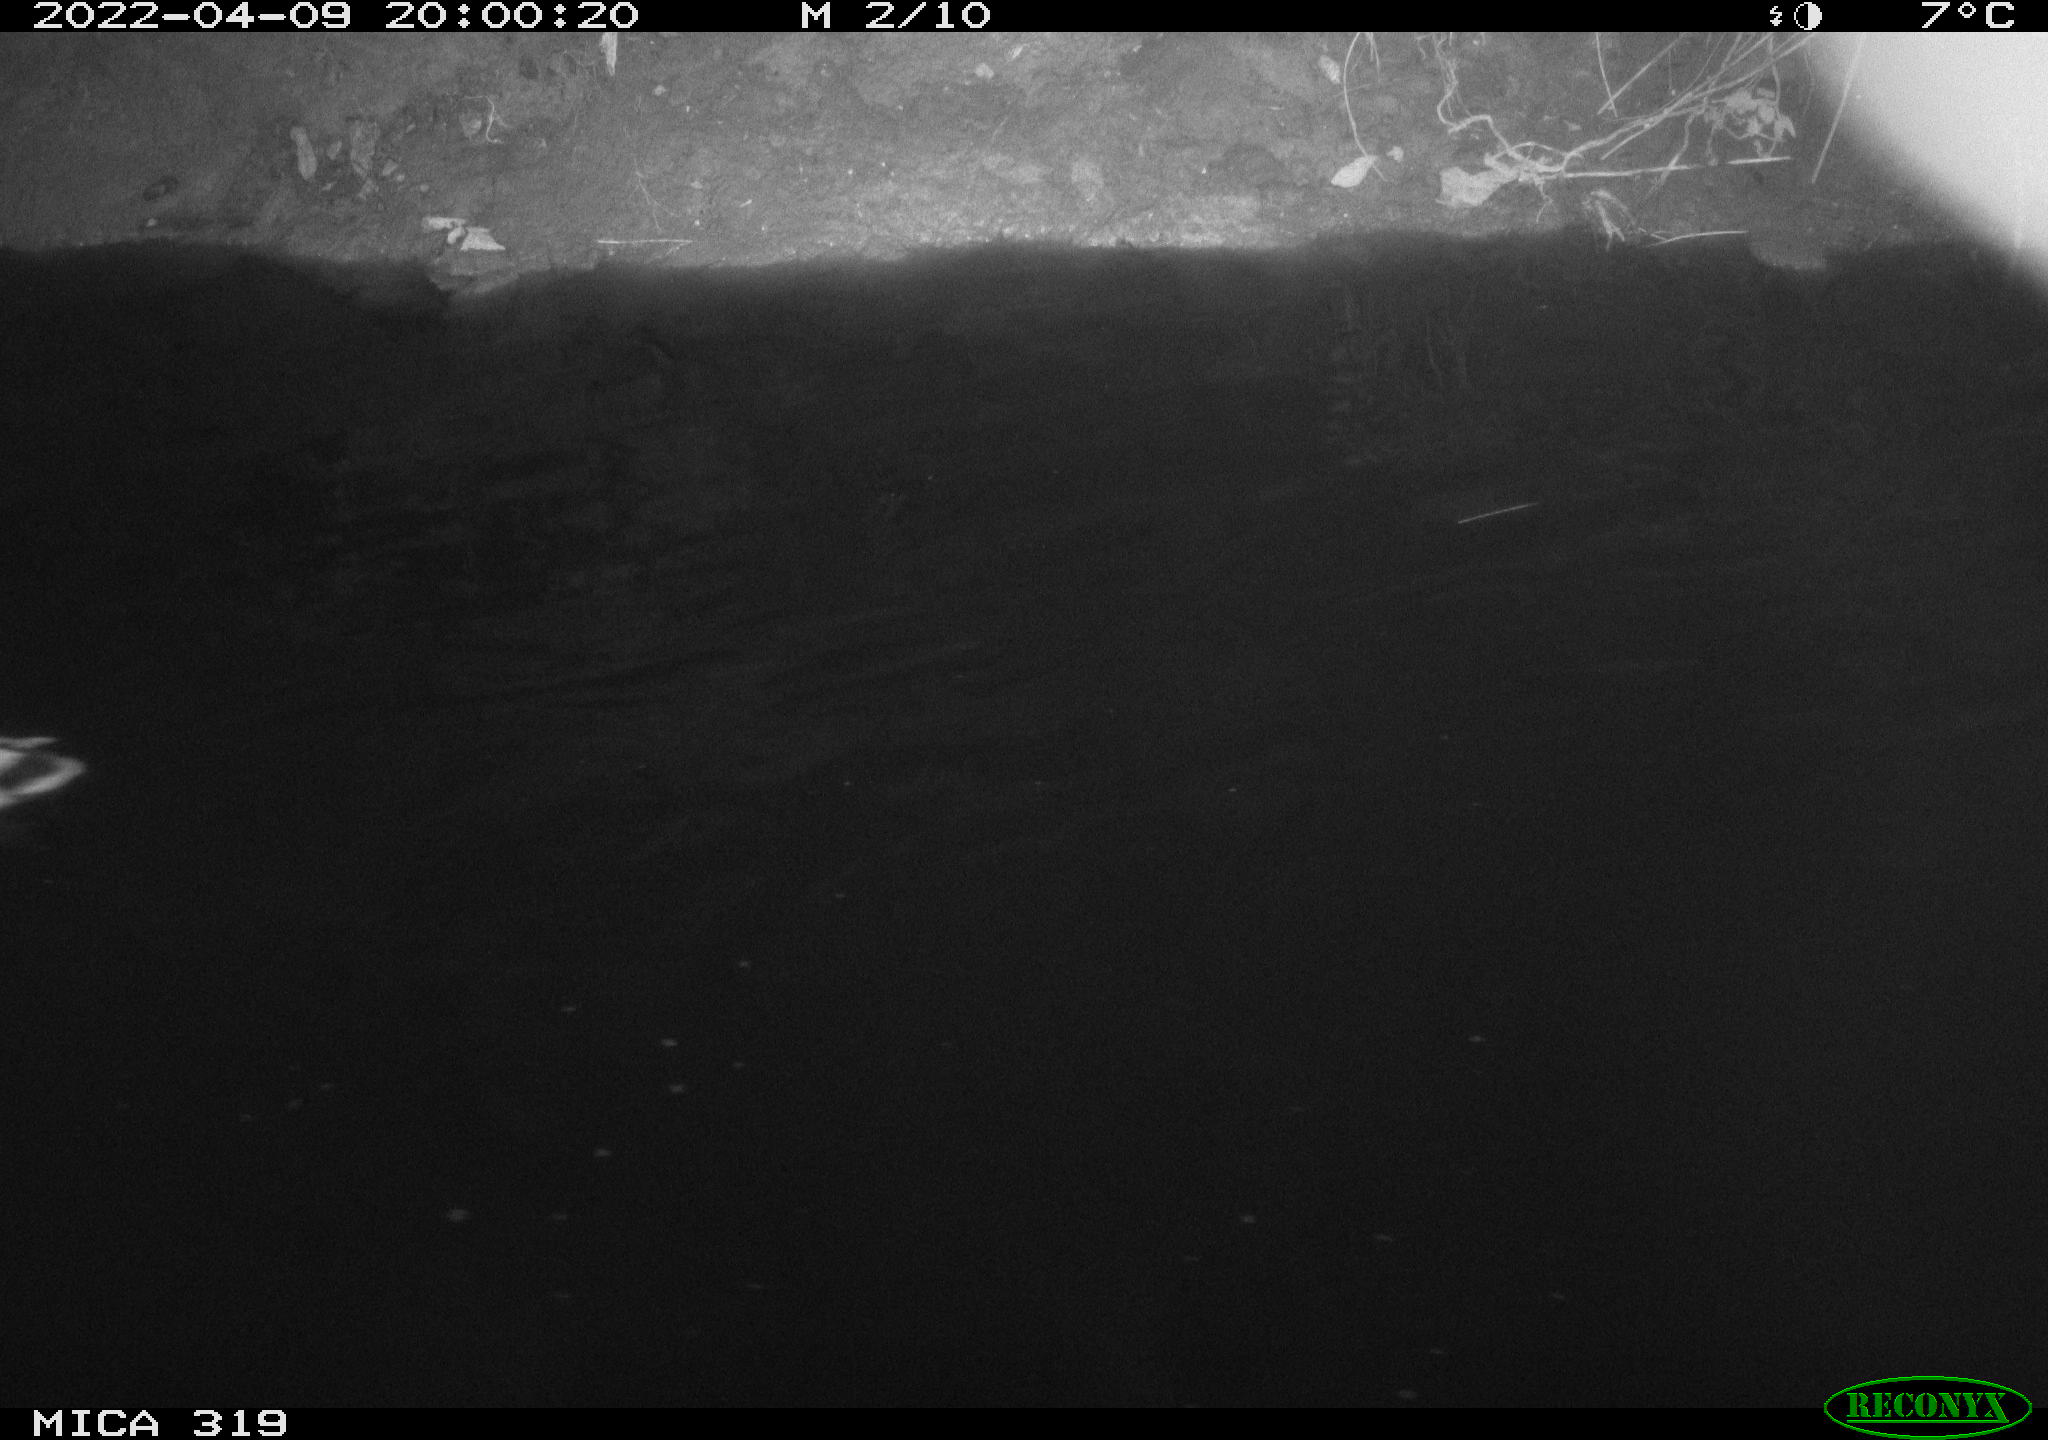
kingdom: Animalia
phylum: Chordata
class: Aves
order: Anseriformes
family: Anatidae
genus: Anas
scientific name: Anas platyrhynchos
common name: Mallard
